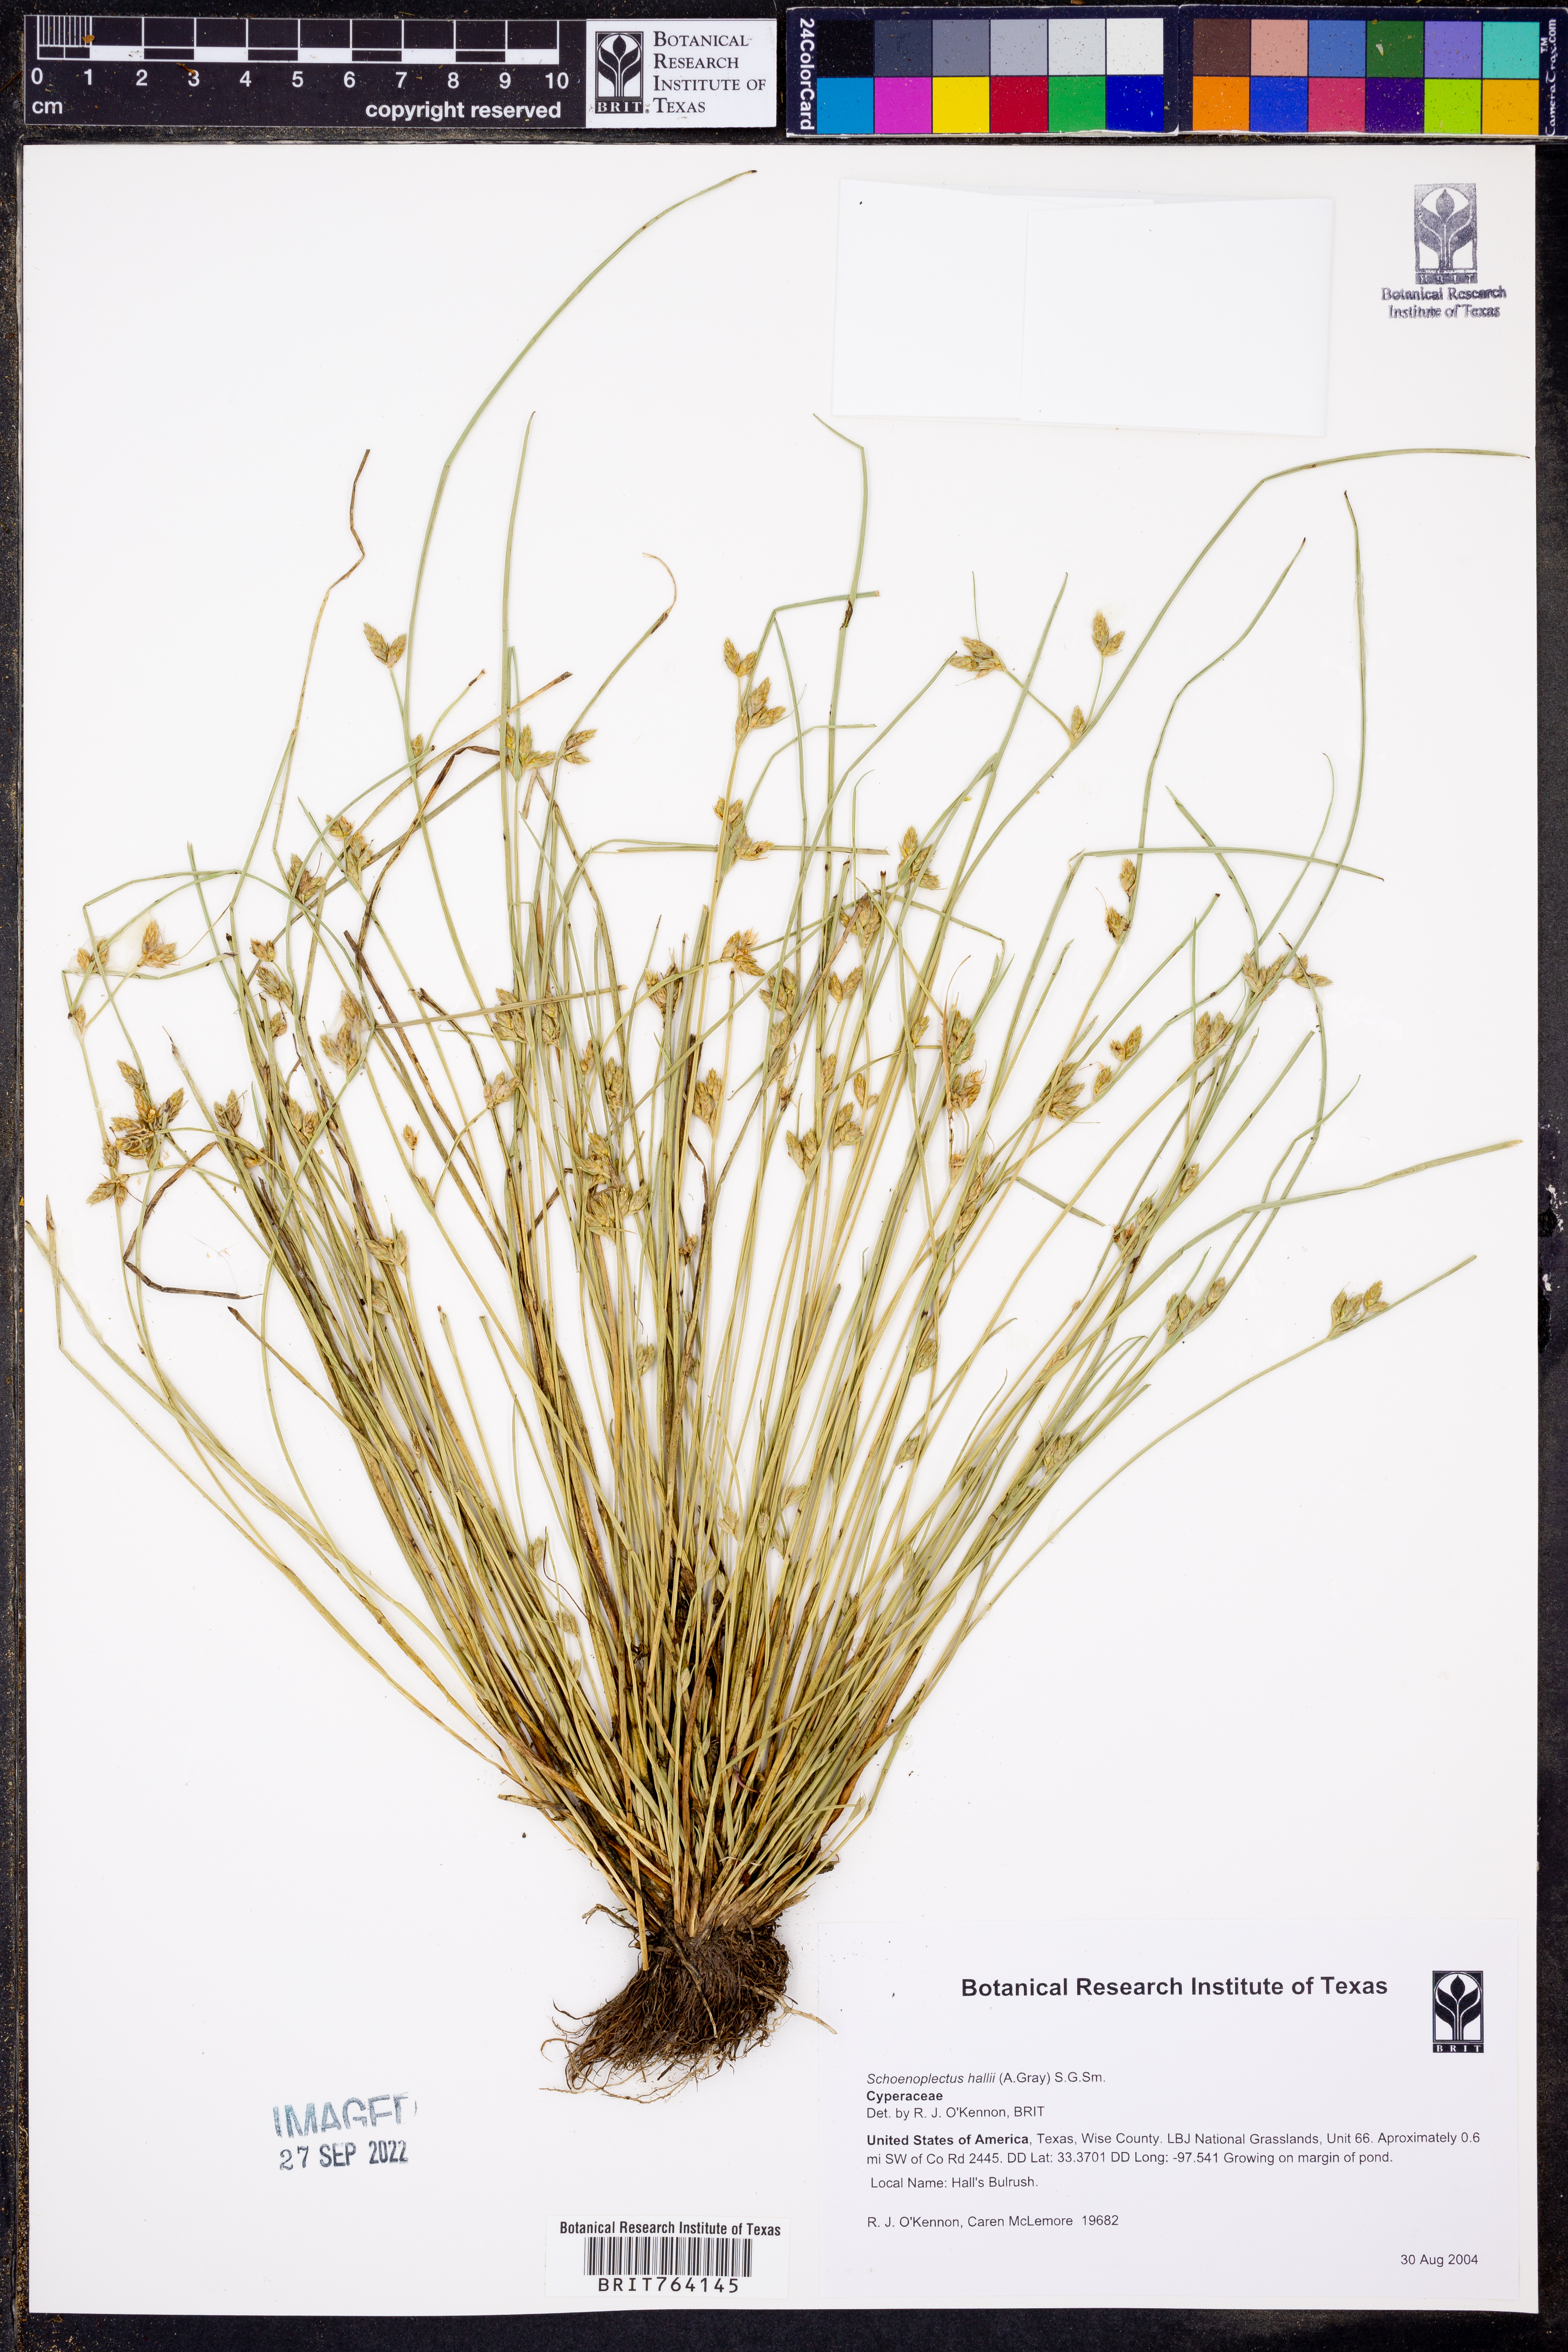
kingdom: Plantae
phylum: Tracheophyta
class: Liliopsida
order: Poales
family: Cyperaceae
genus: Schoenoplectiella
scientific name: Schoenoplectiella hallii
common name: Hall's bullrush
